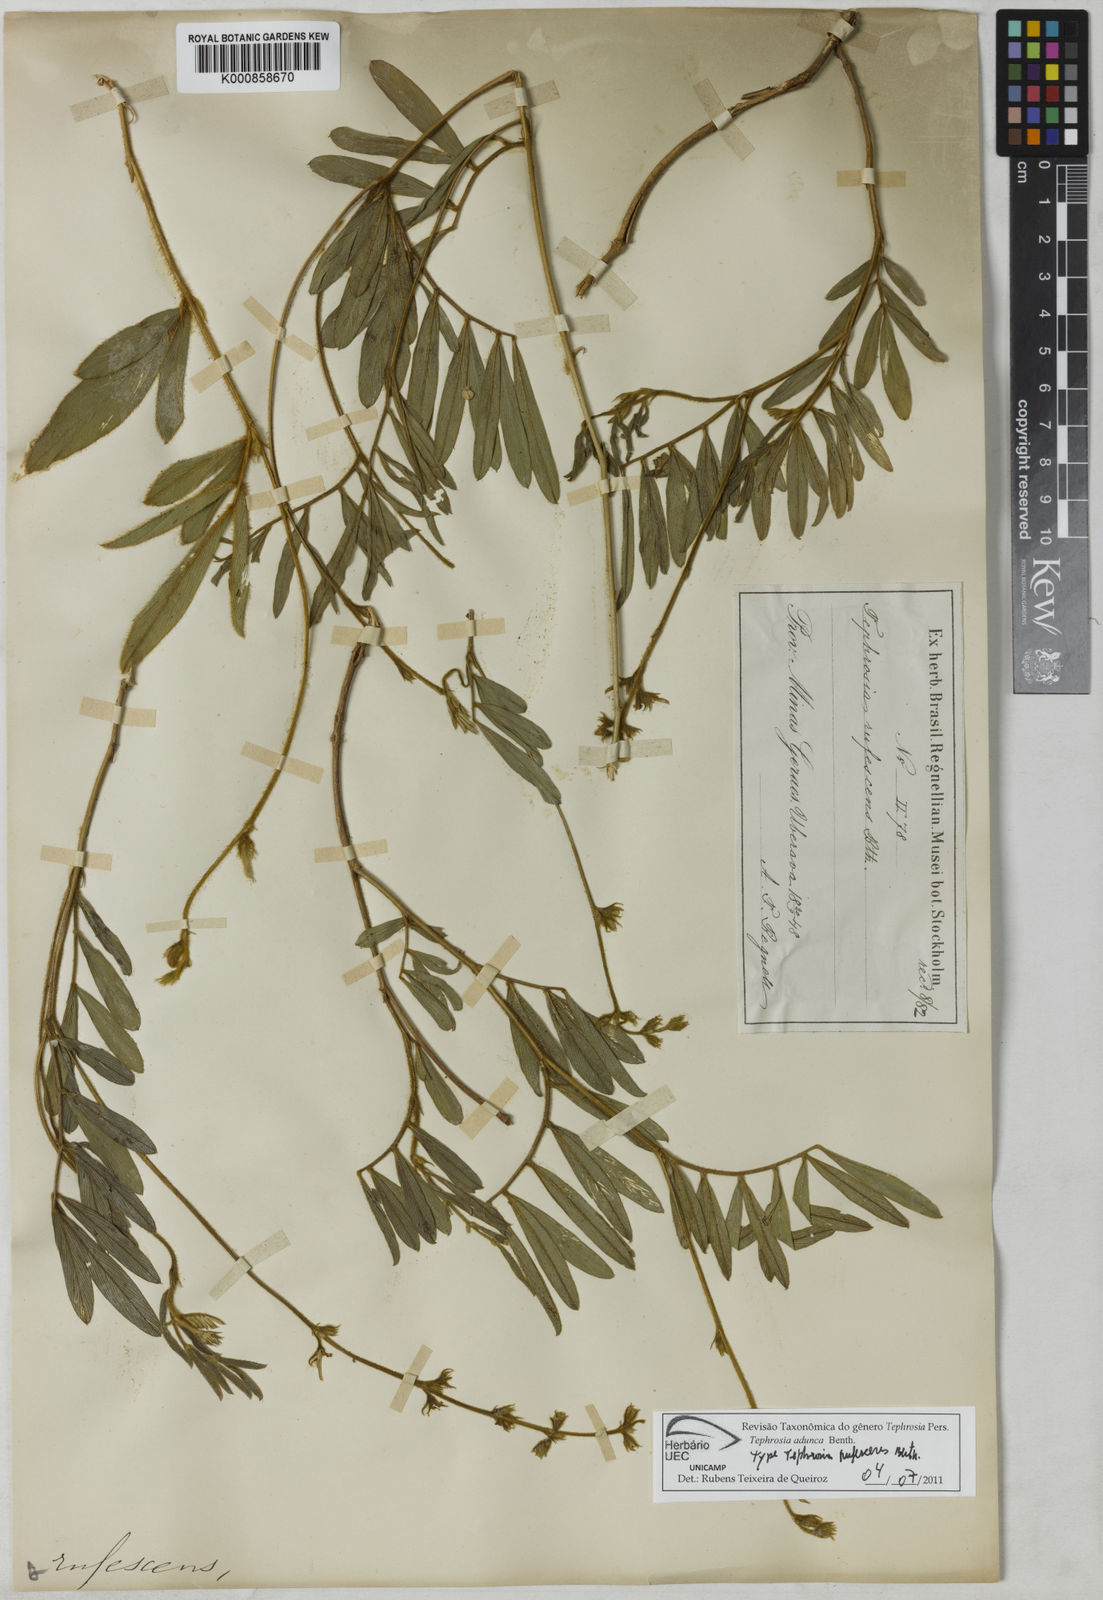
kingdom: Plantae
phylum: Tracheophyta
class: Magnoliopsida
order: Fabales
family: Fabaceae
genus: Tephrosia
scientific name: Tephrosia adunca
